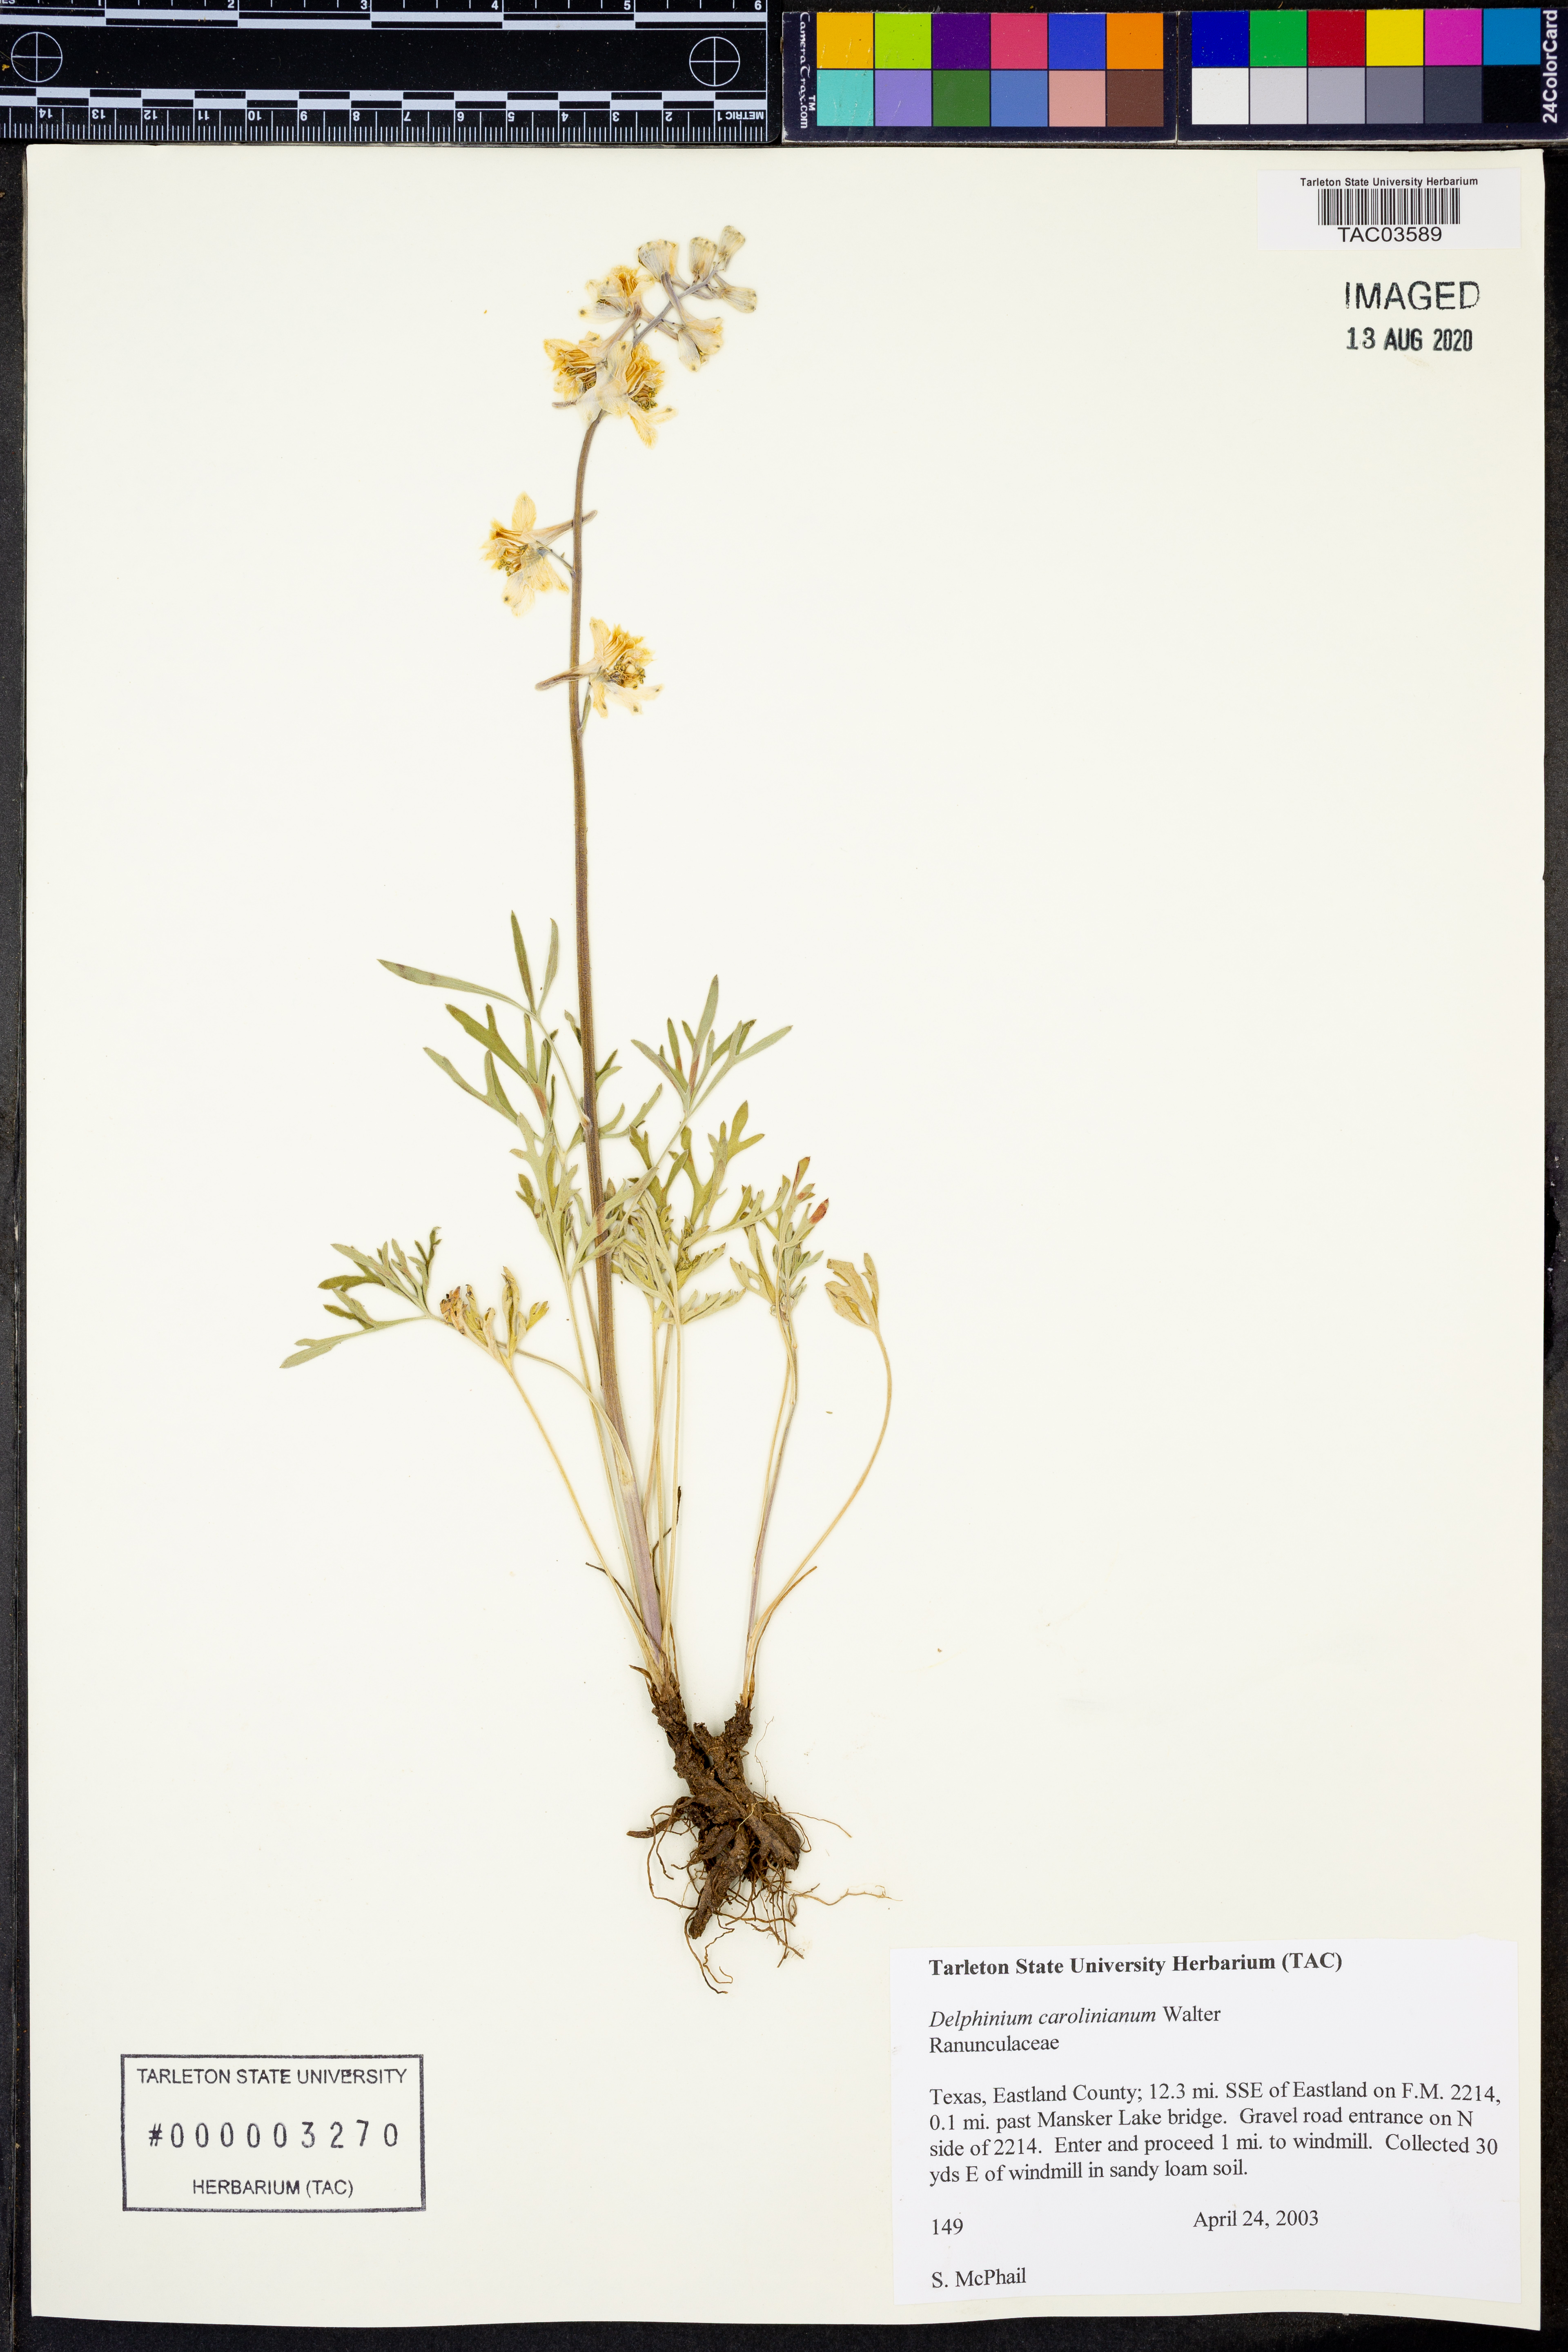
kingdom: Plantae
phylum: Tracheophyta
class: Magnoliopsida
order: Ranunculales
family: Ranunculaceae
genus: Delphinium
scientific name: Delphinium carolinianum
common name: Carolina larkspur
